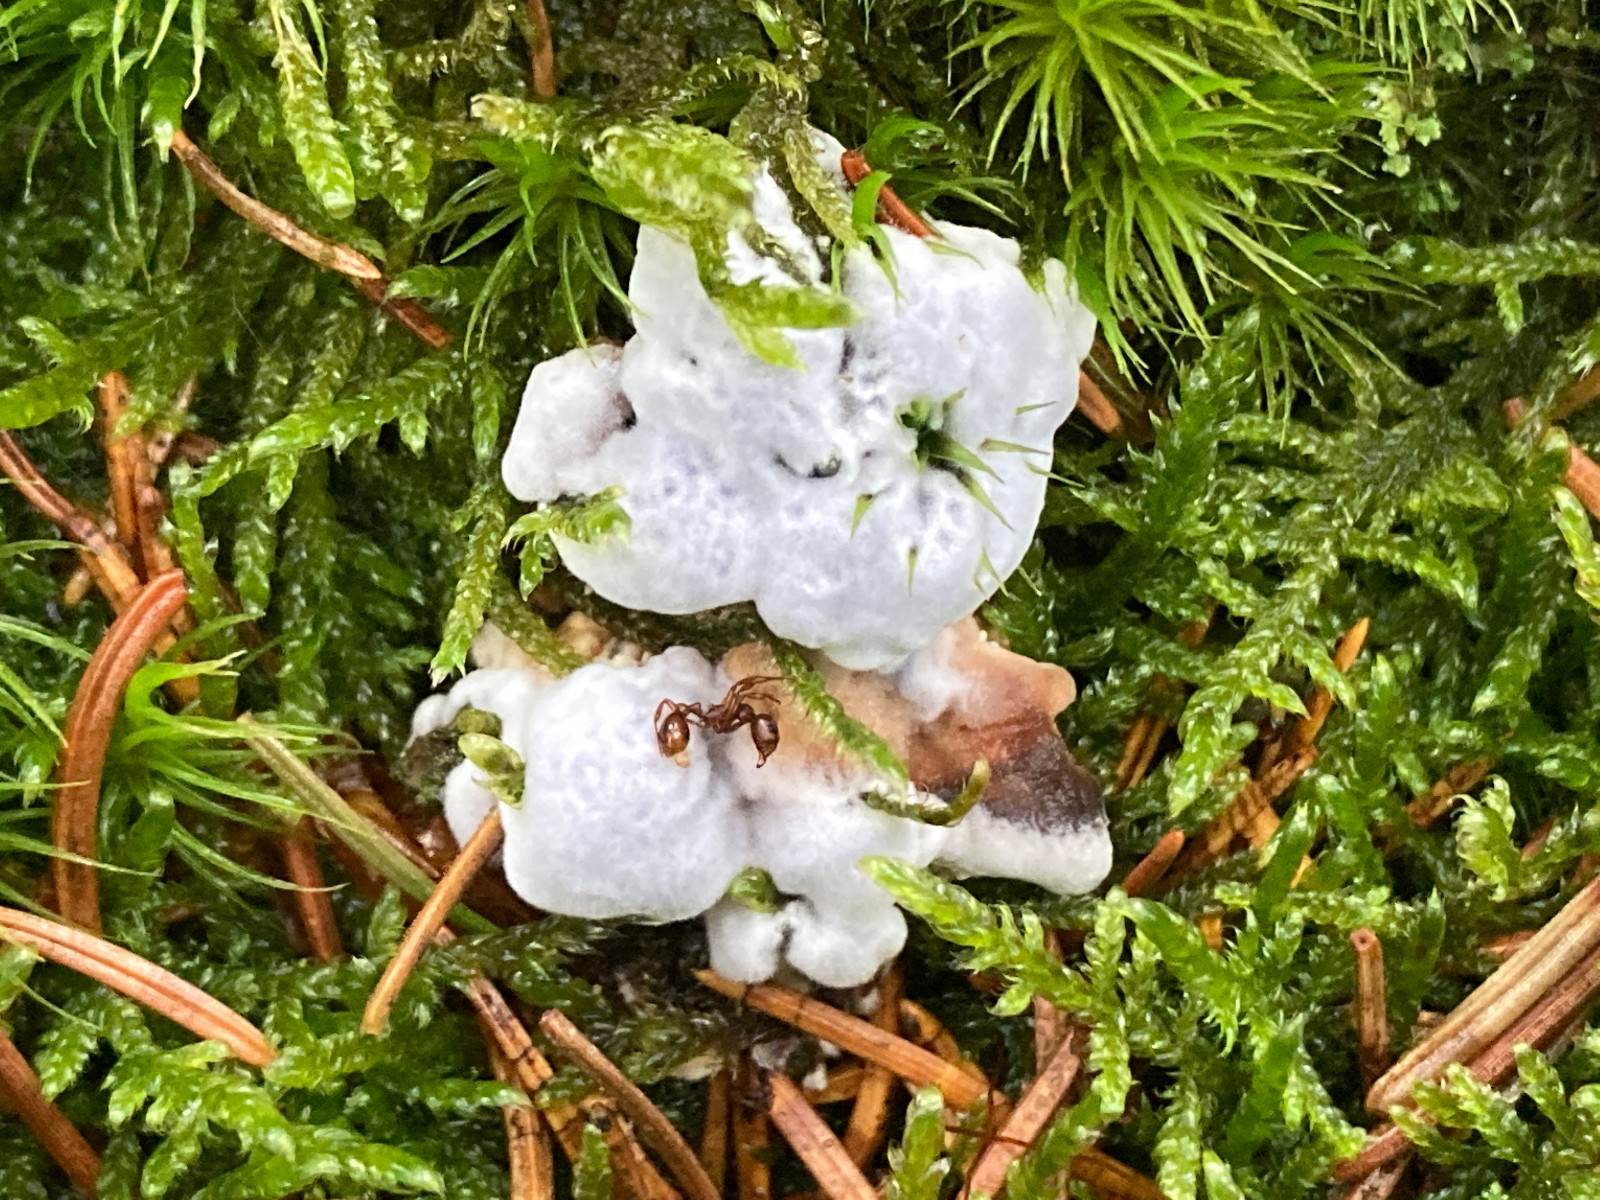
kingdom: Fungi
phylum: Basidiomycota
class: Agaricomycetes
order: Thelephorales
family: Bankeraceae
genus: Hydnellum
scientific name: Hydnellum caeruleum
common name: blålig korkpigsvamp
